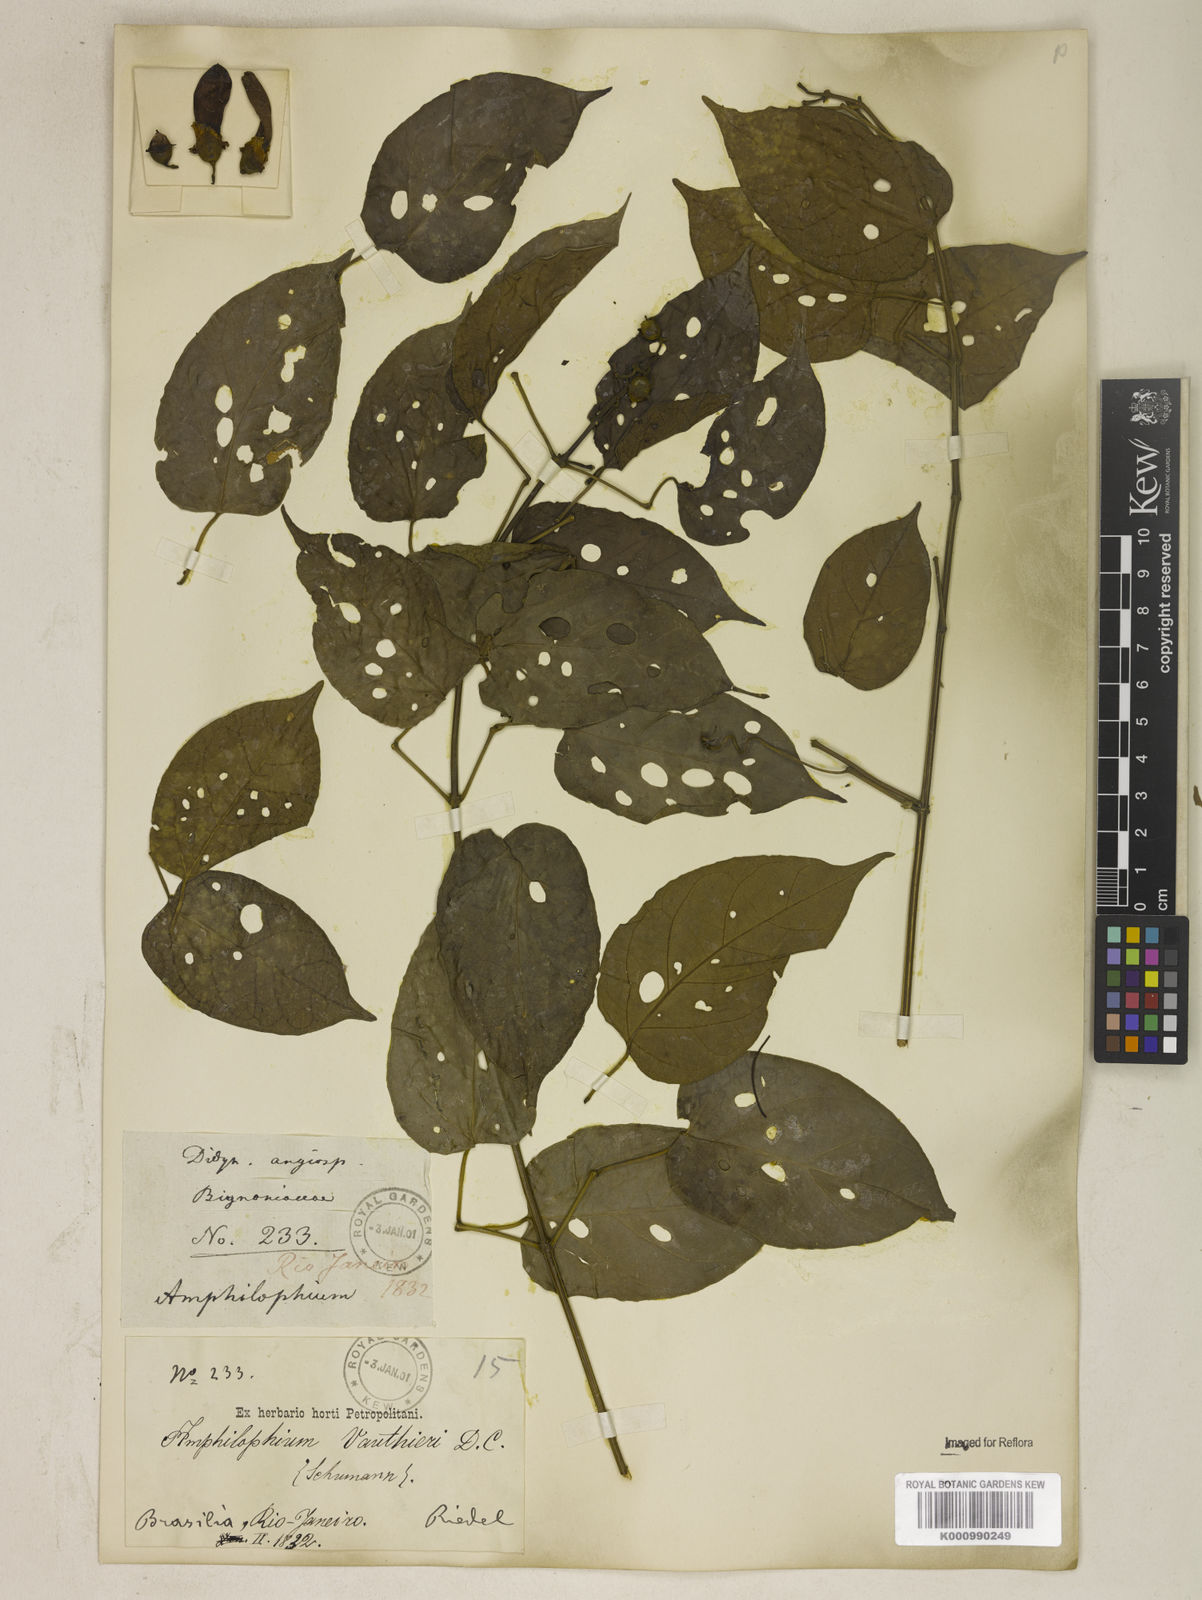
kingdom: Plantae
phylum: Tracheophyta
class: Magnoliopsida
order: Lamiales
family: Bignoniaceae
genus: Amphilophium
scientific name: Amphilophium paniculatum
